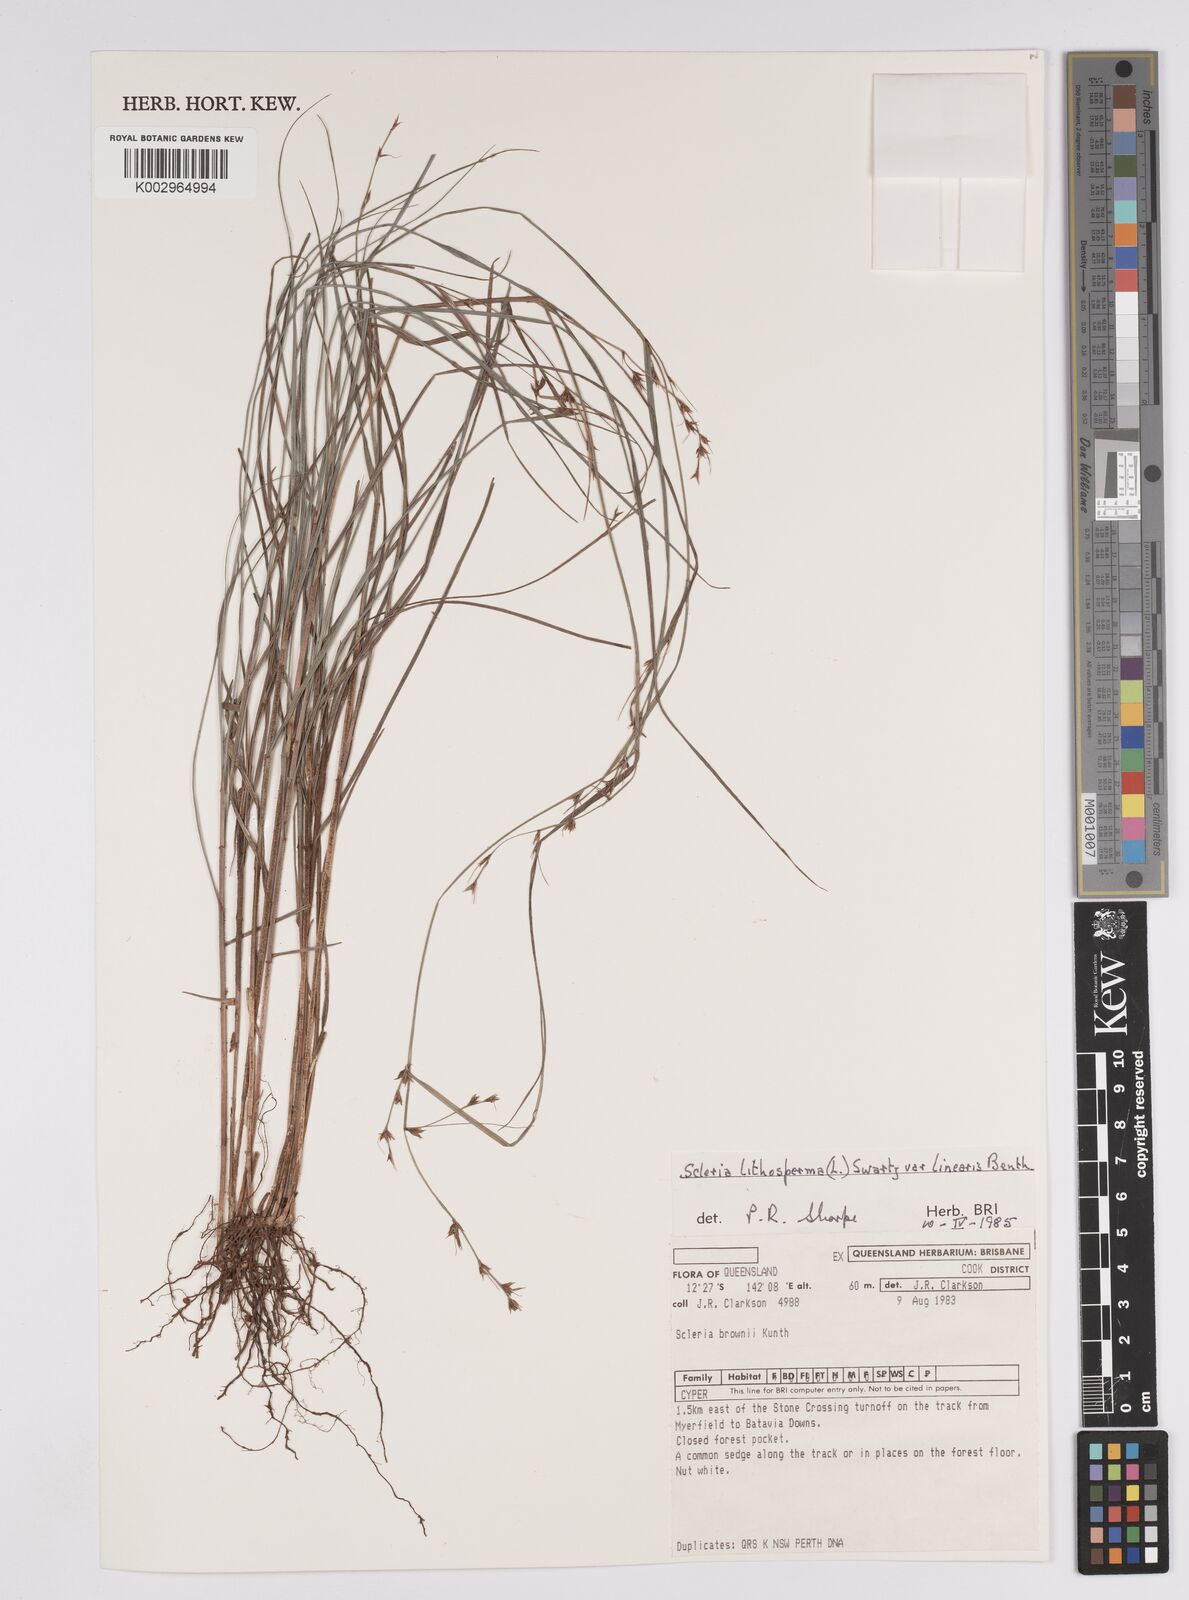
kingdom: Plantae
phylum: Tracheophyta
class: Liliopsida
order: Poales
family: Cyperaceae
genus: Scleria
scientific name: Scleria lithosperma
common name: Florida keys nut-rush
